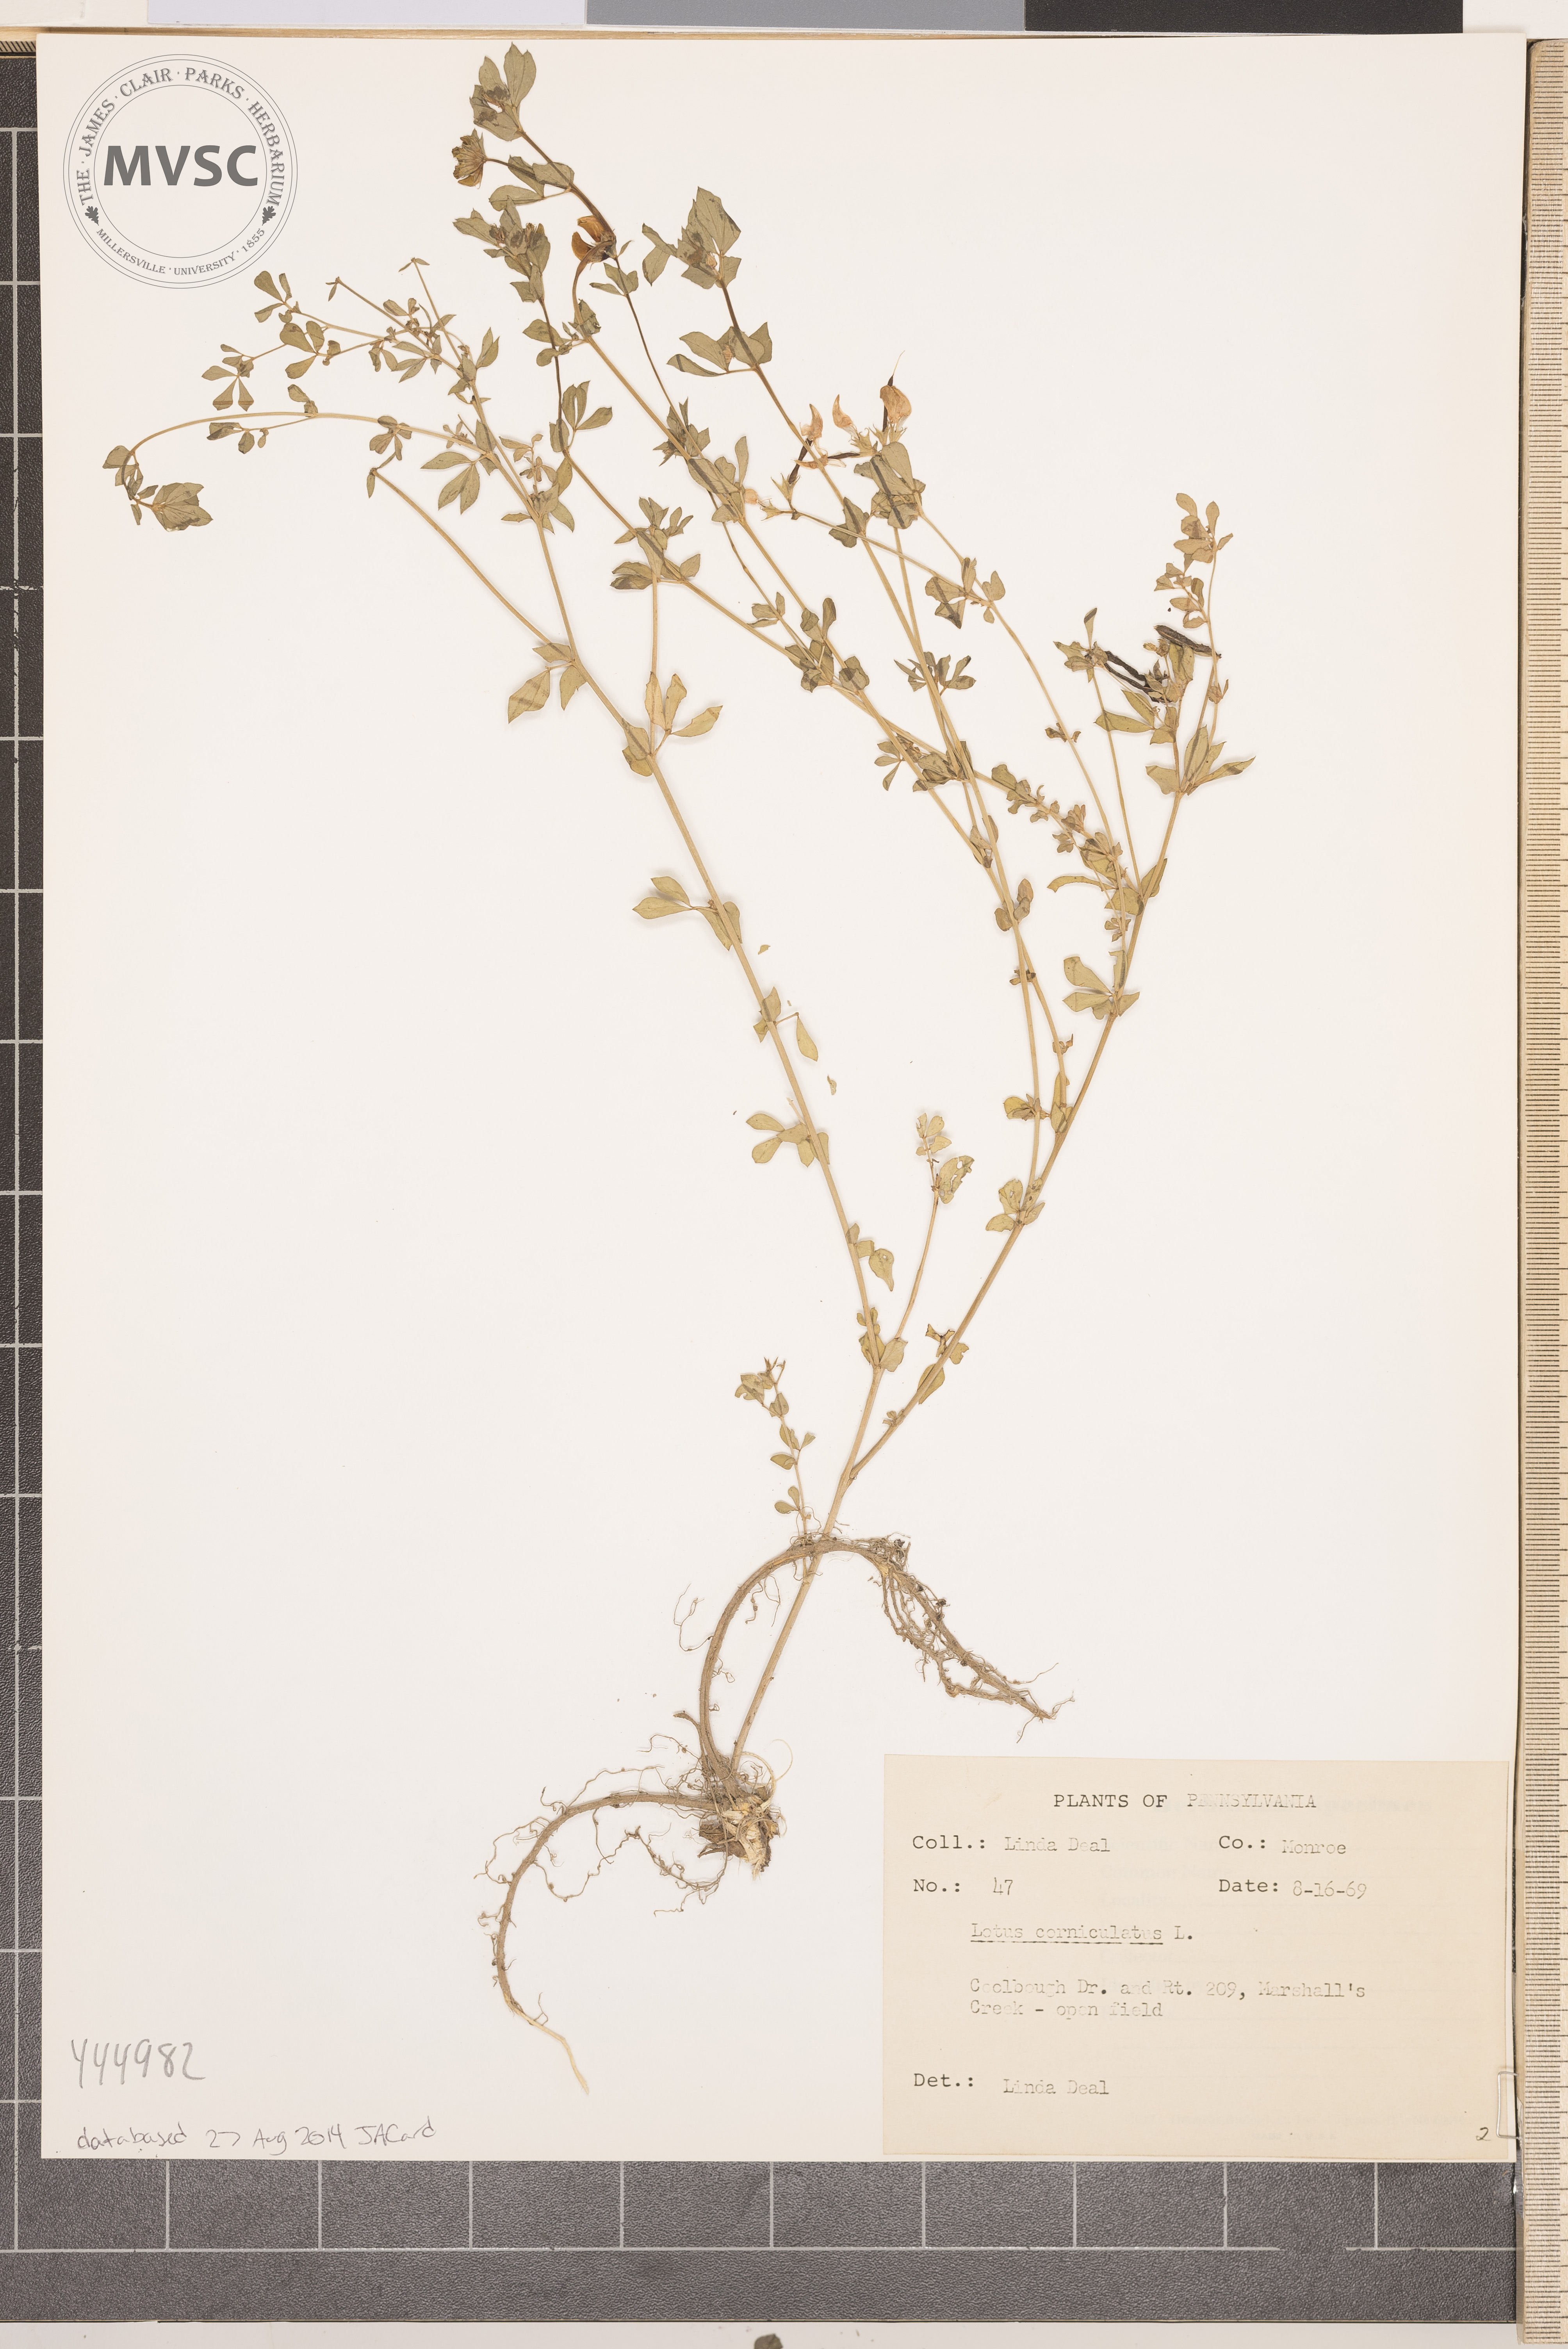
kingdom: Plantae
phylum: Tracheophyta
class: Magnoliopsida
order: Fabales
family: Fabaceae
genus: Lotus
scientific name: Lotus corniculatus
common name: Common bird's-foot-trefoil
